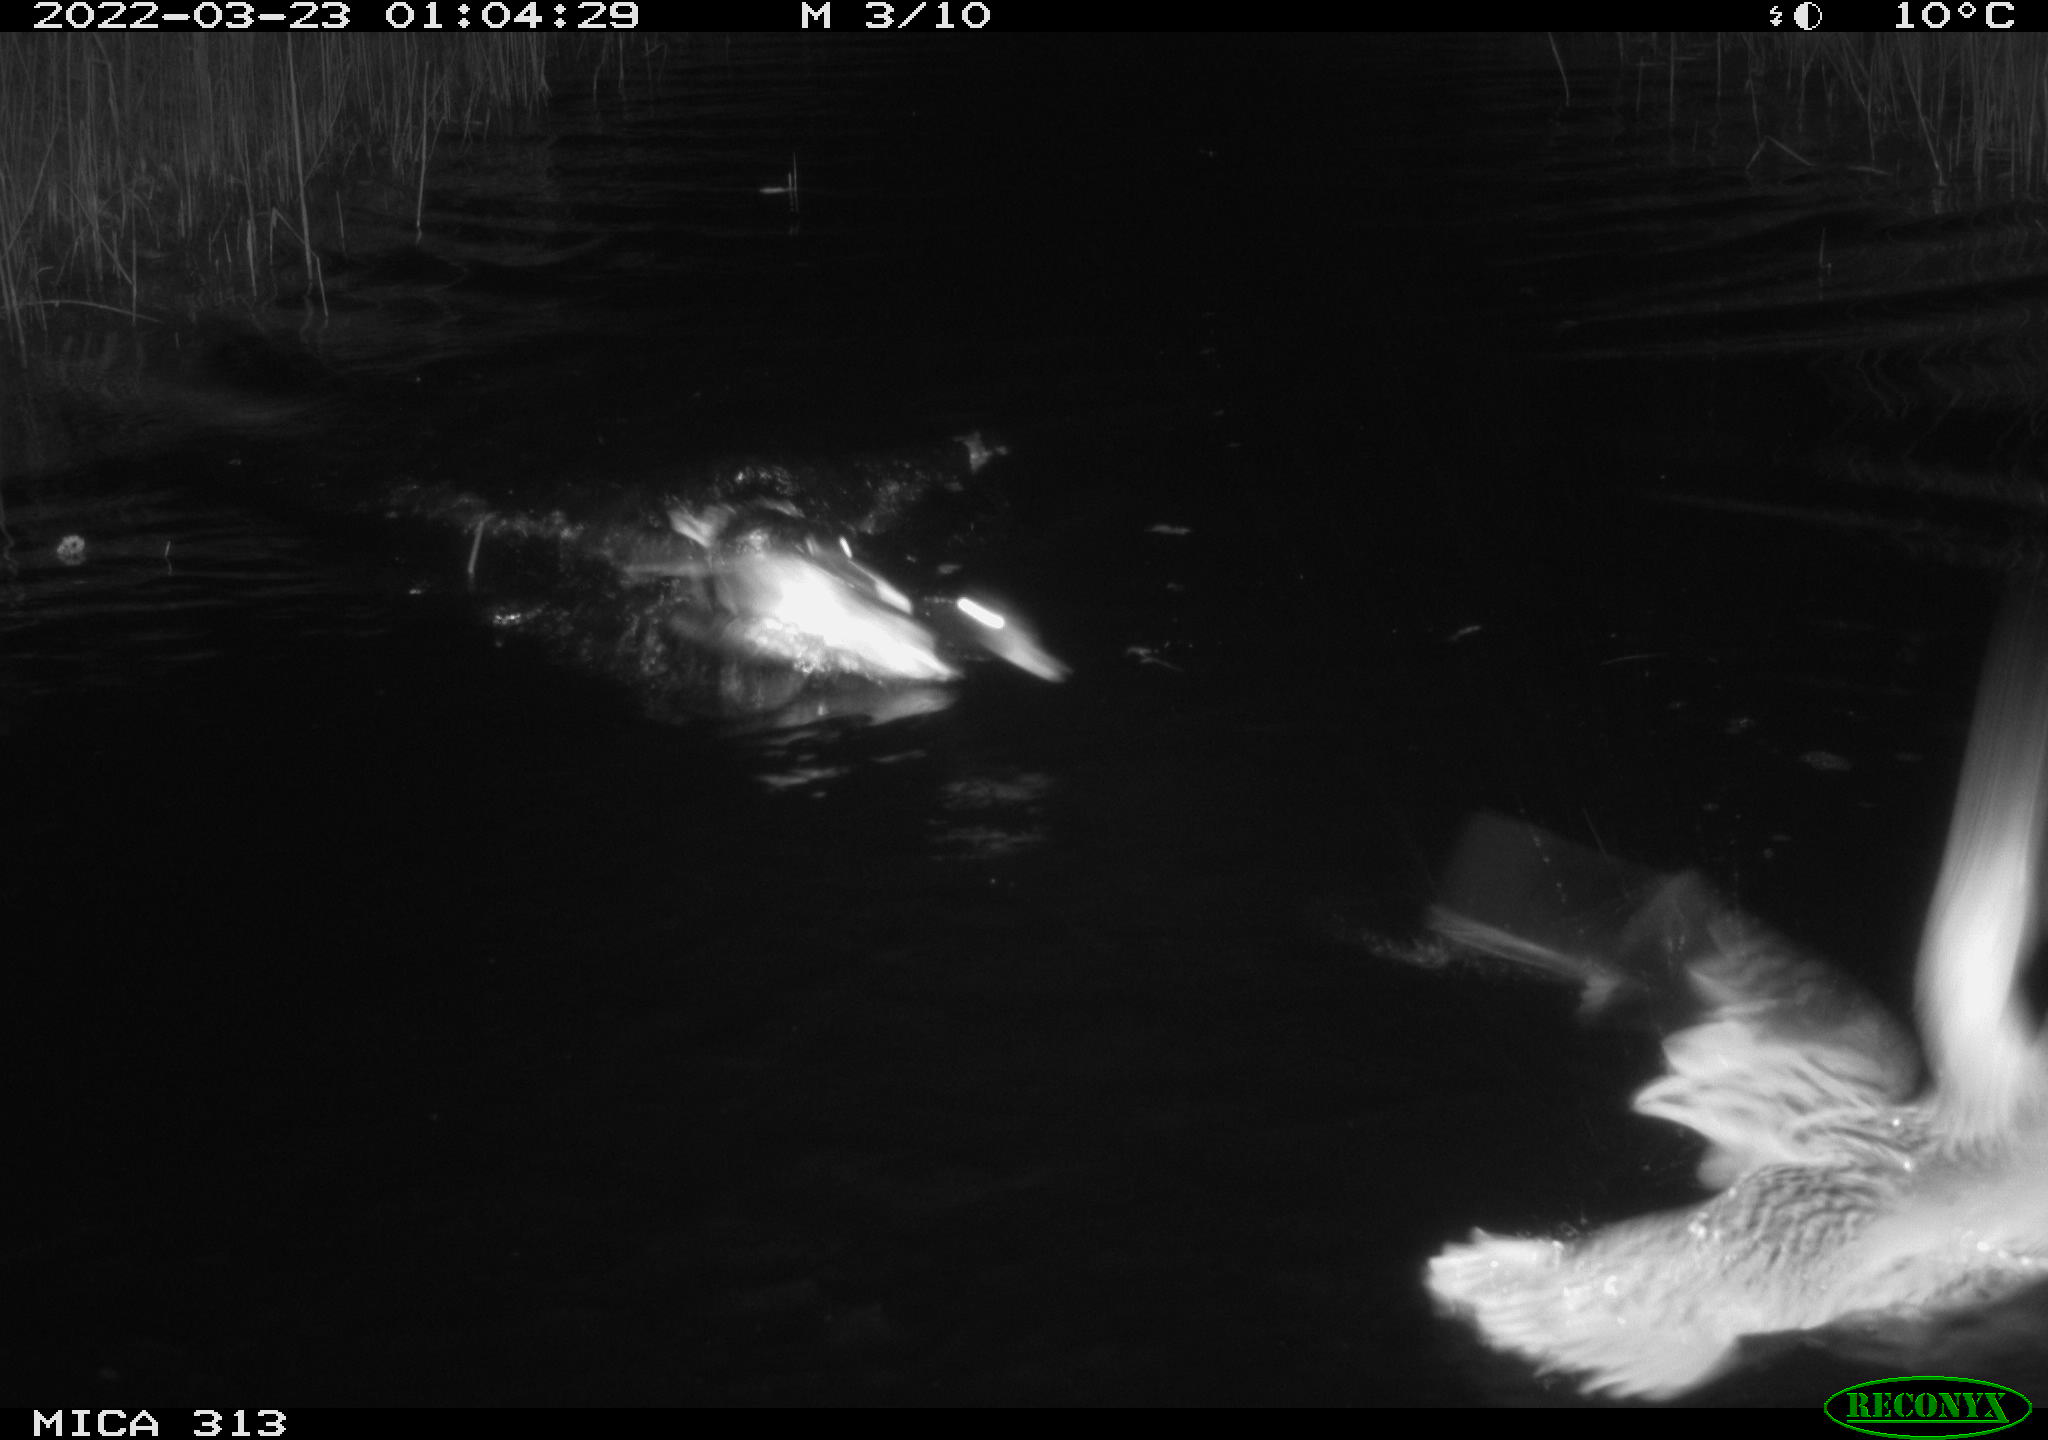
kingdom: Animalia
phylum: Chordata
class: Aves
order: Anseriformes
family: Anatidae
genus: Anas
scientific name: Anas platyrhynchos
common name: Mallard
